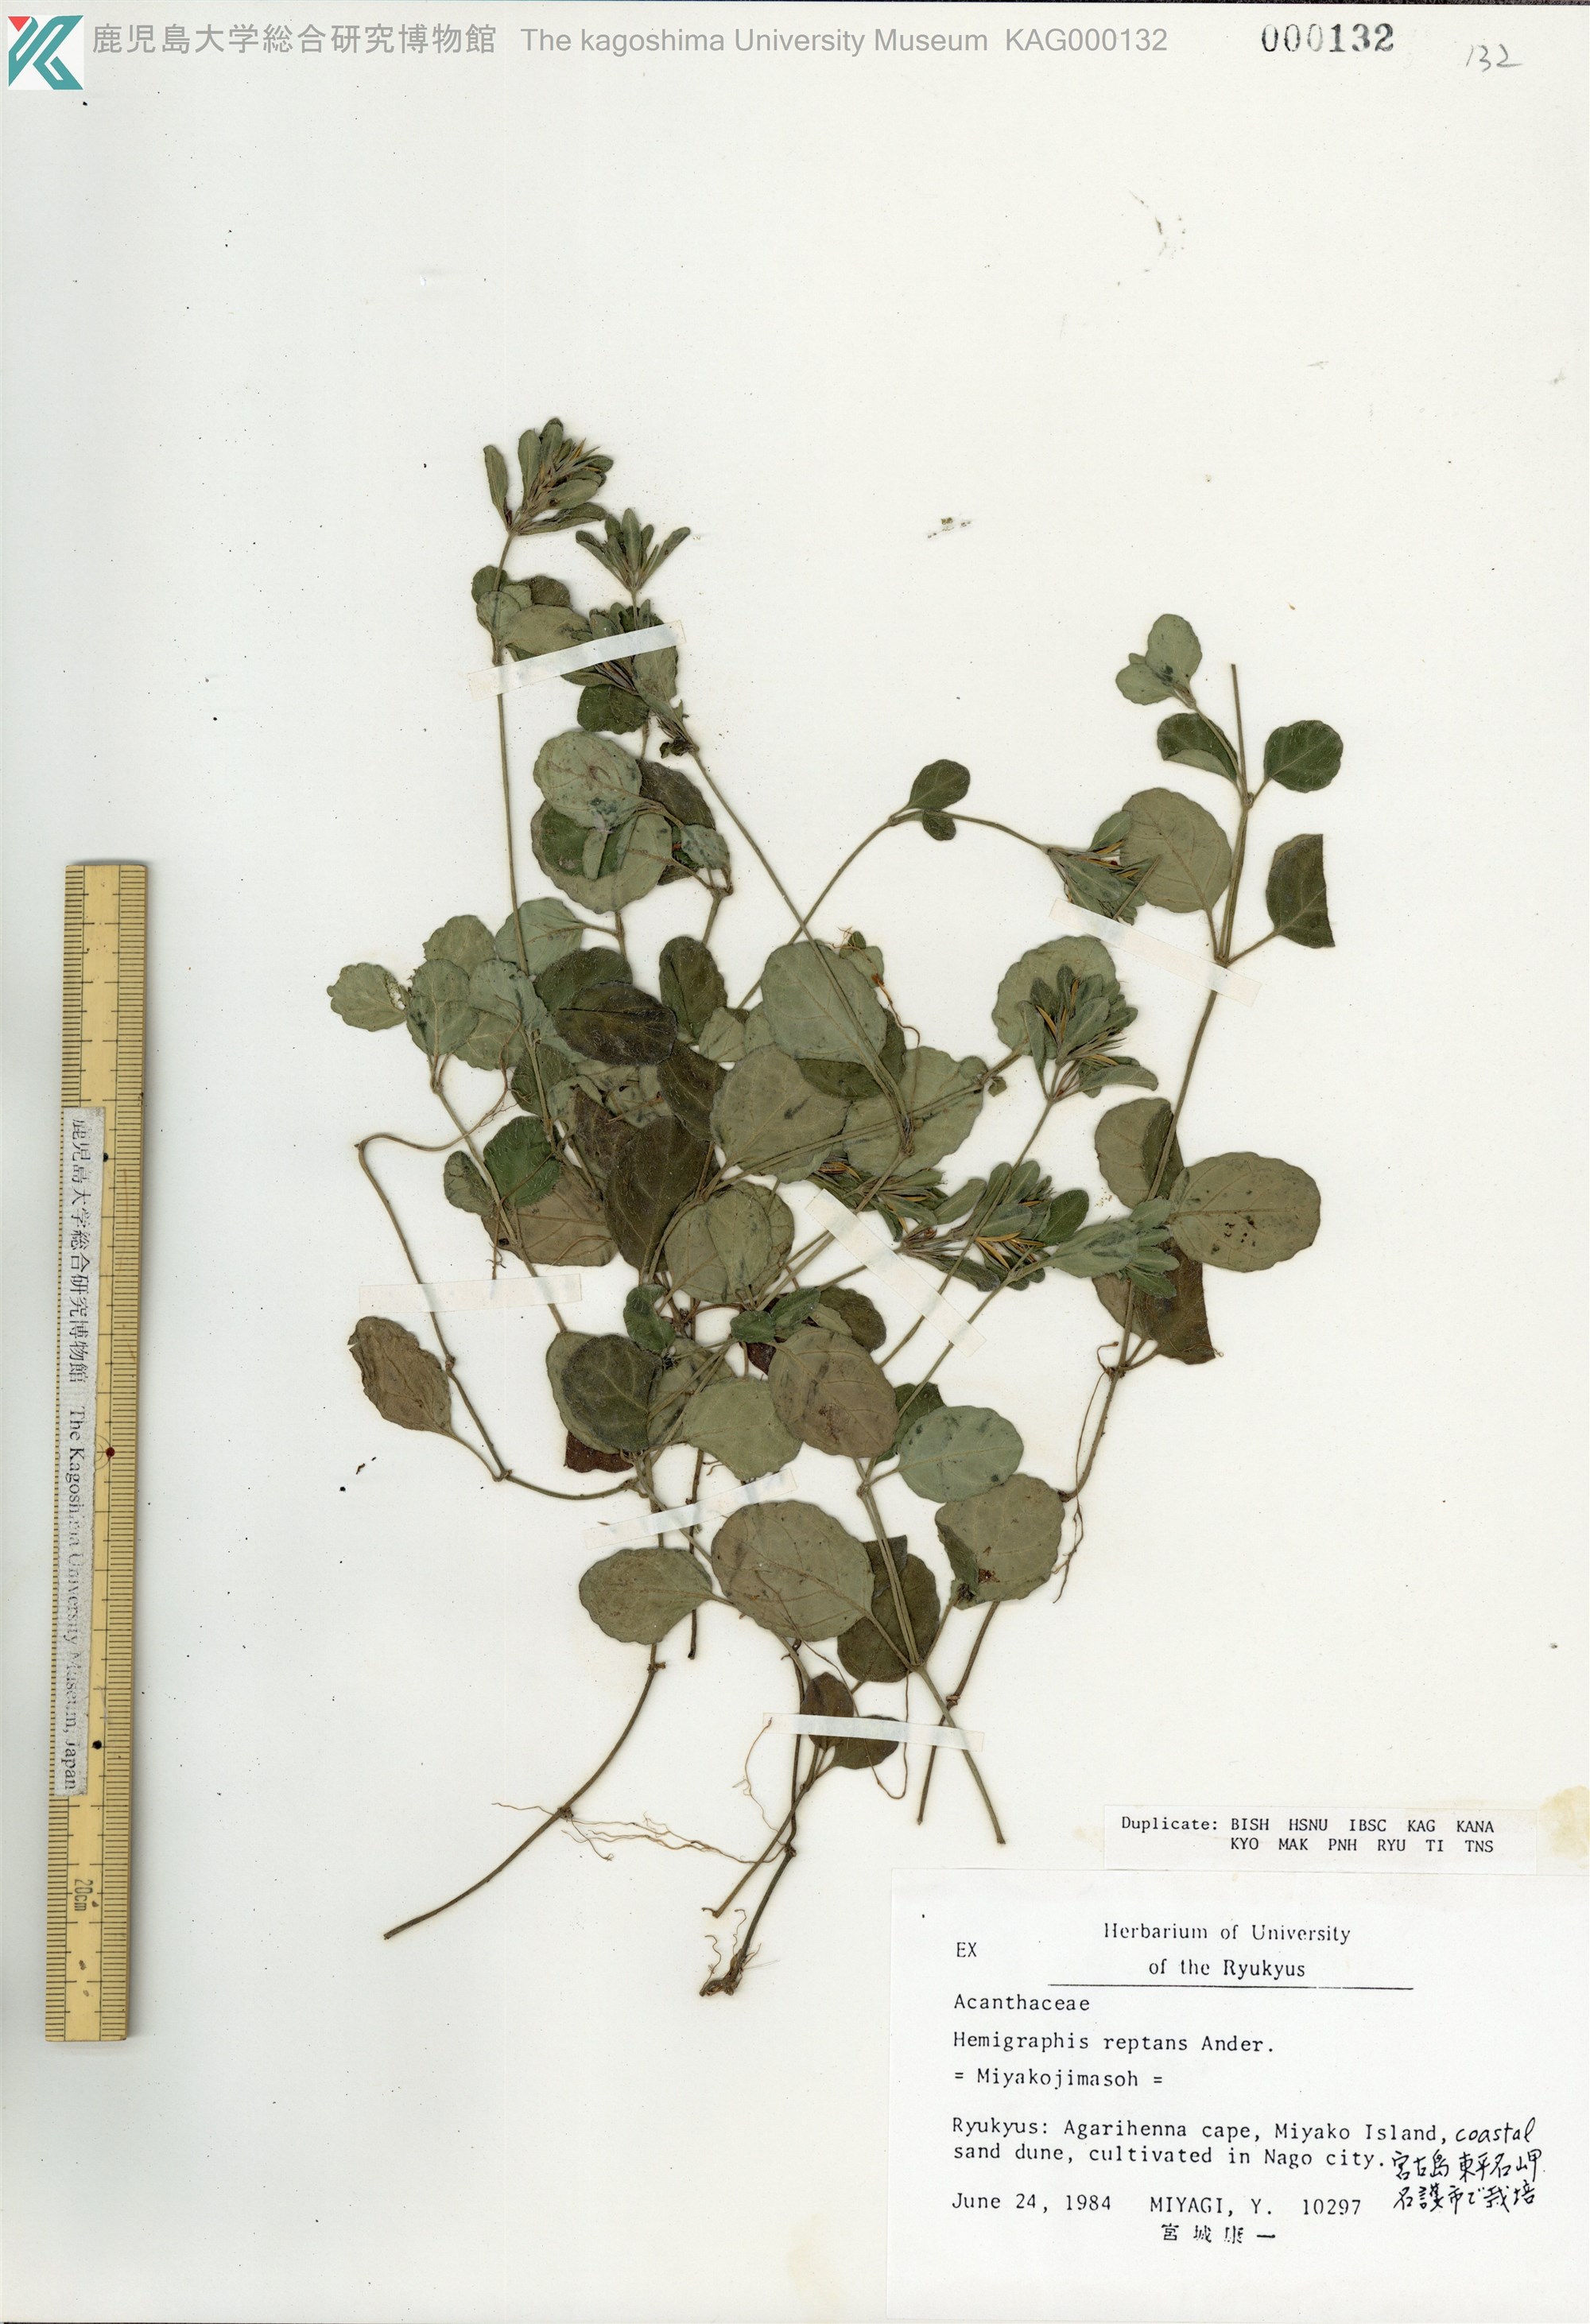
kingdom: Plantae
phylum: Tracheophyta
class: Magnoliopsida
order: Lamiales
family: Acanthaceae
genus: Hemigraphis
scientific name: Hemigraphis reptans
